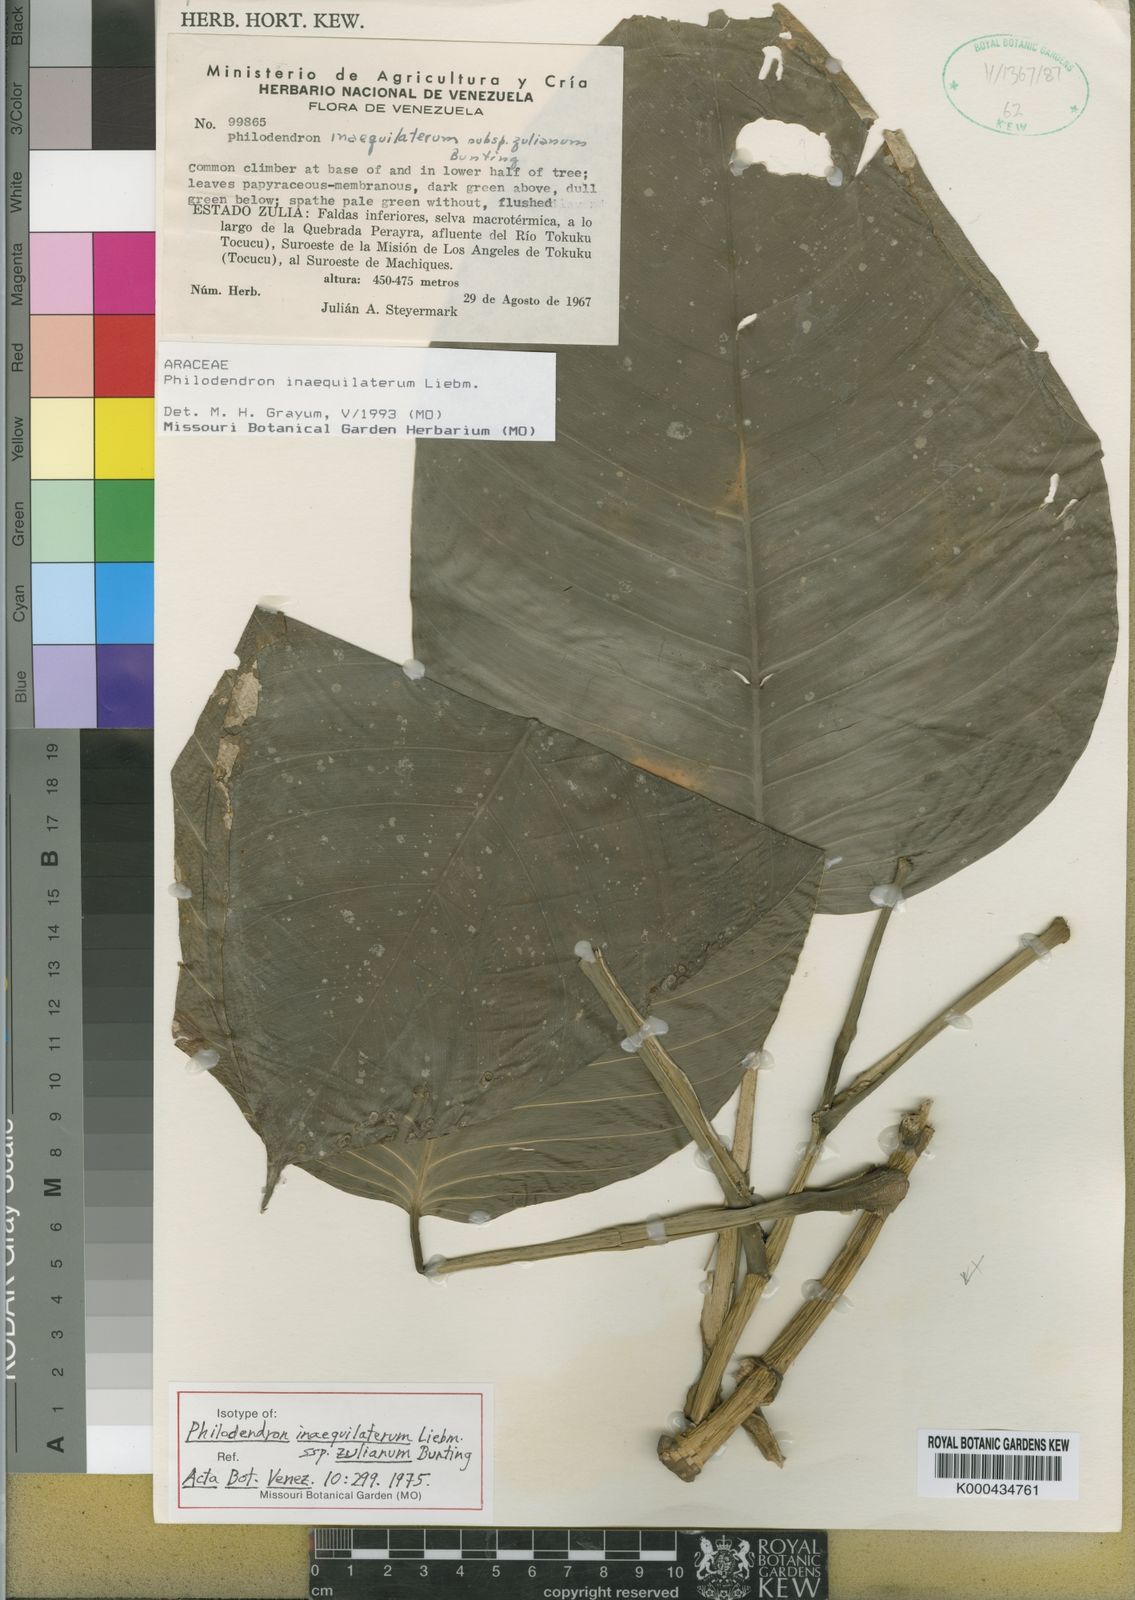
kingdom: Plantae
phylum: Tracheophyta
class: Liliopsida
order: Alismatales
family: Araceae
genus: Philodendron
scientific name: Philodendron inaequilaterum
